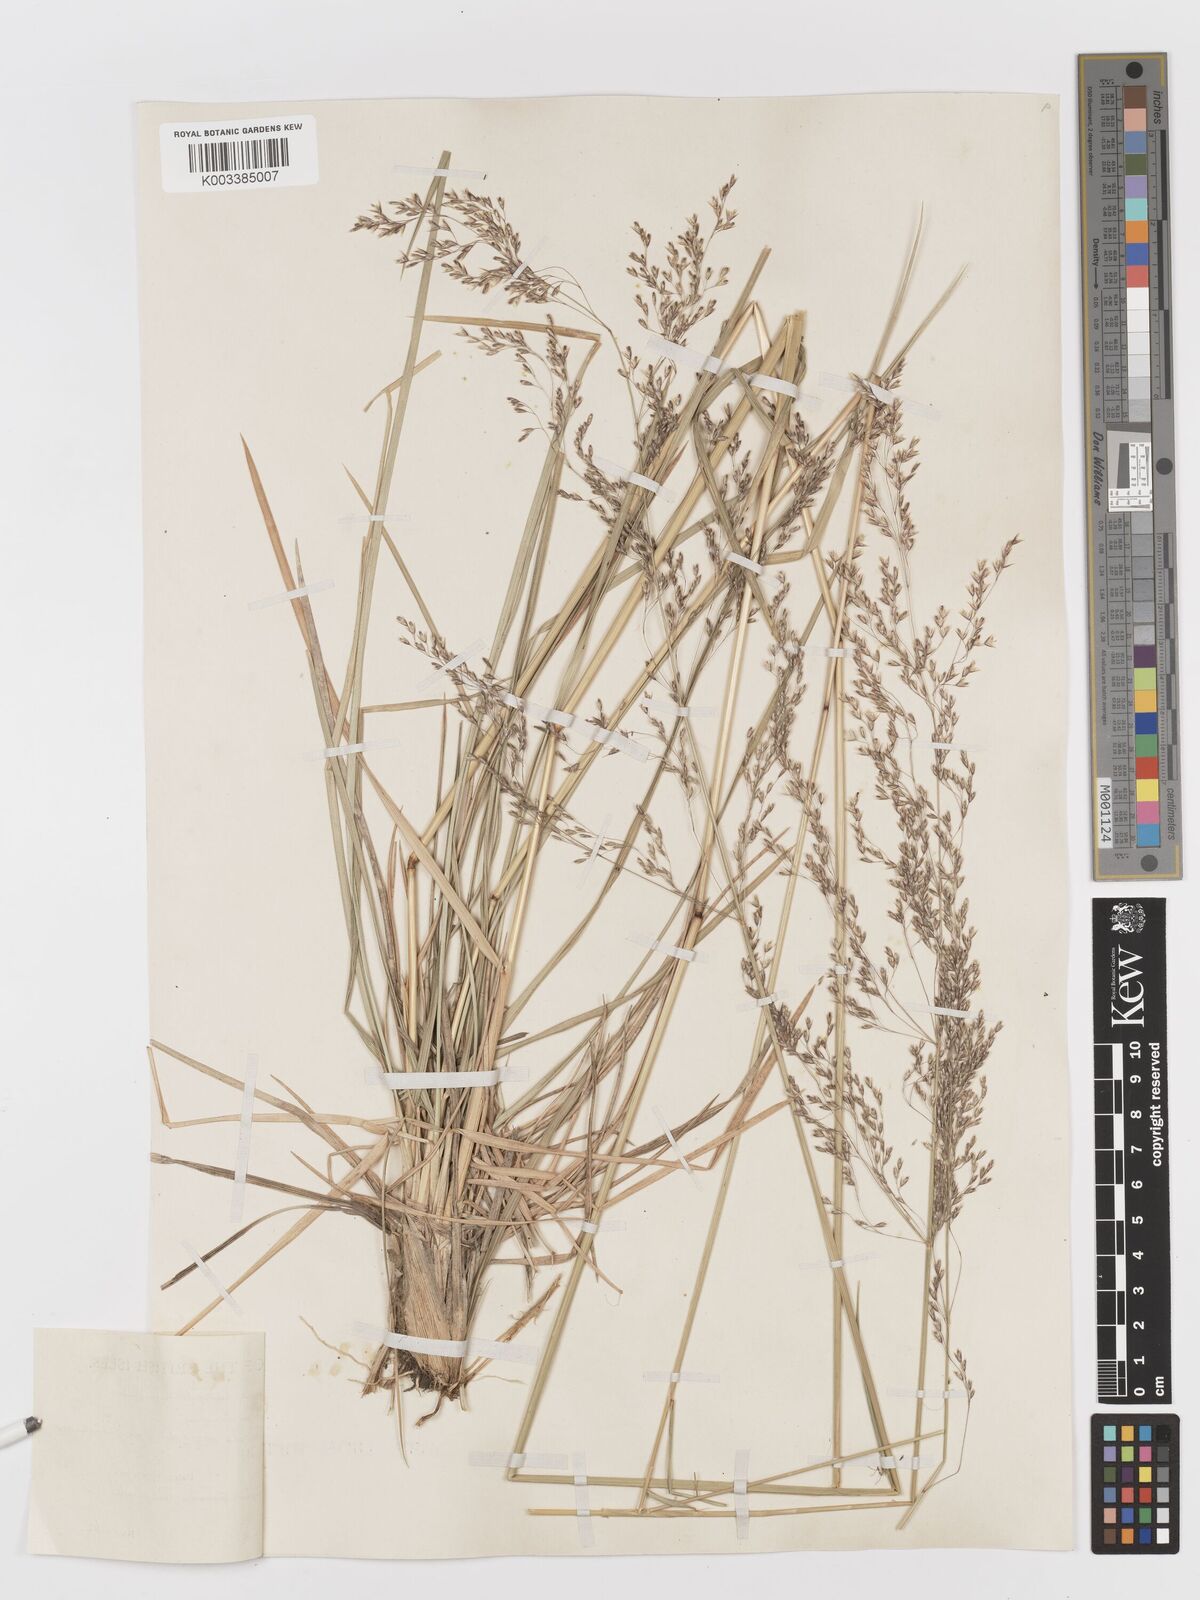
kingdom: Plantae
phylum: Tracheophyta
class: Liliopsida
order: Poales
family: Poaceae
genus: Deschampsia
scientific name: Deschampsia cespitosa
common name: Tufted hair-grass
